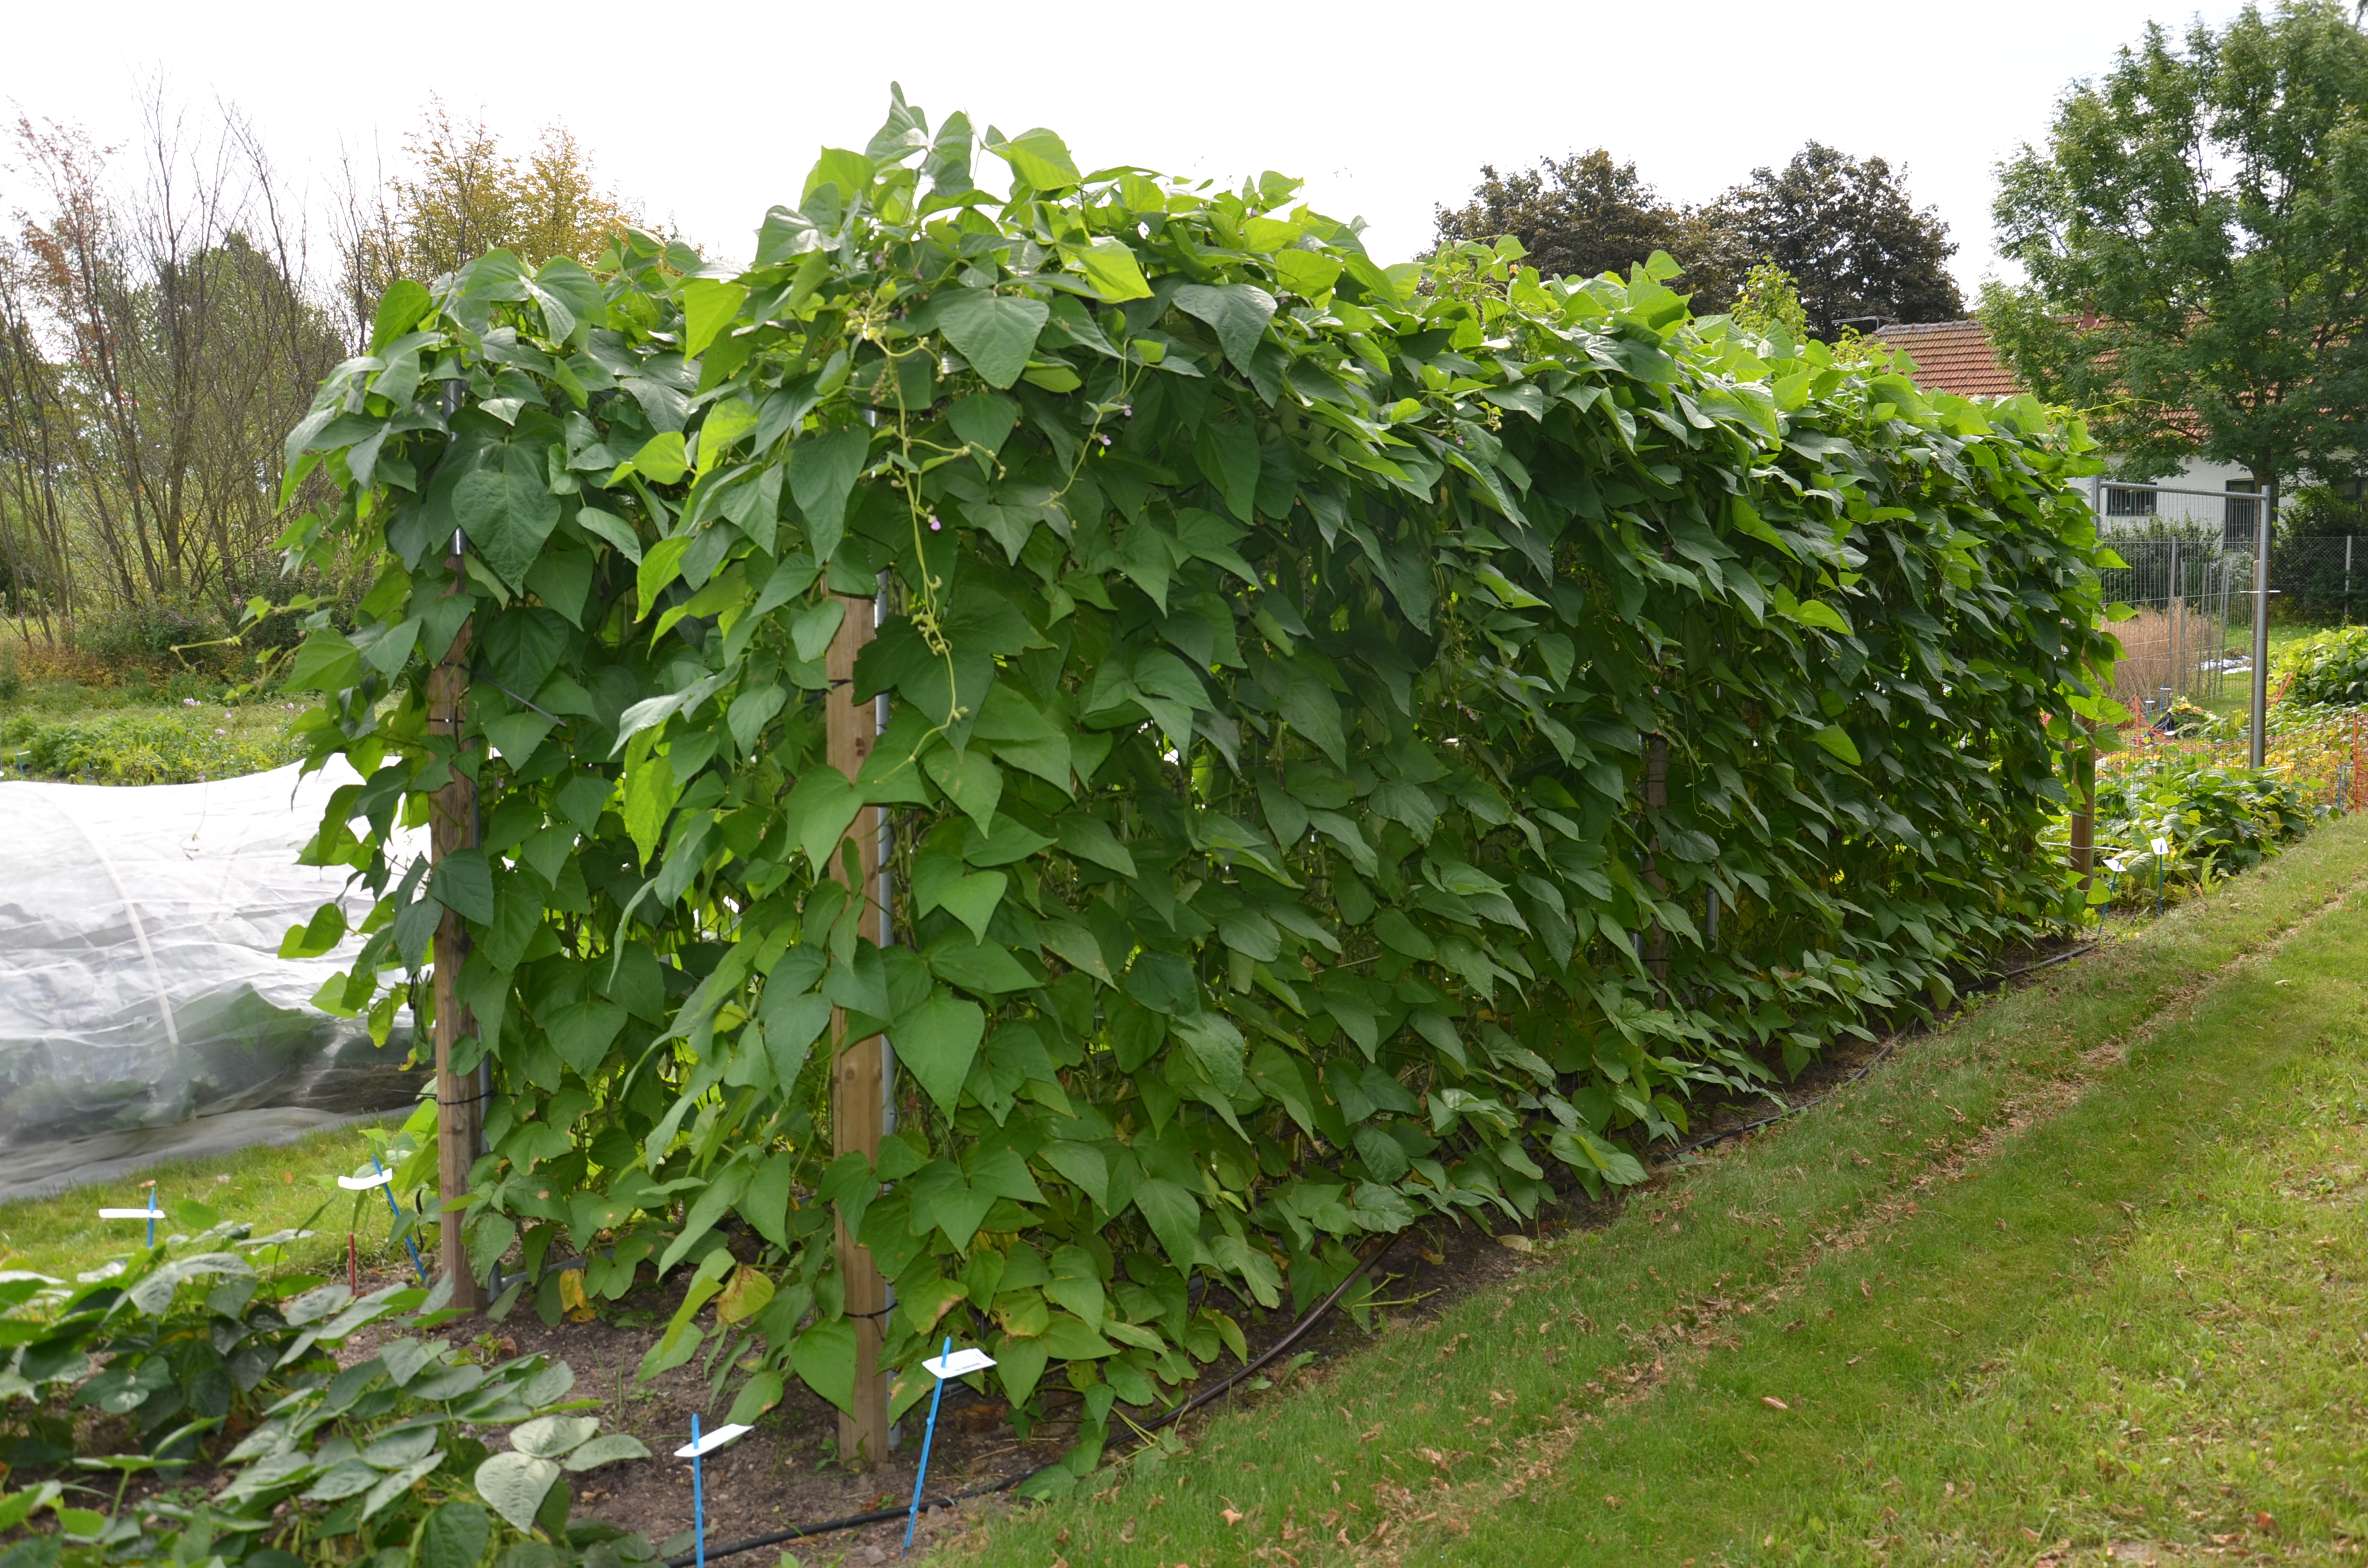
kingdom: Plantae
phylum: Tracheophyta
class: Magnoliopsida
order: Fabales
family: Fabaceae
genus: Phaseolus
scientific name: Phaseolus vulgaris
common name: Bean
